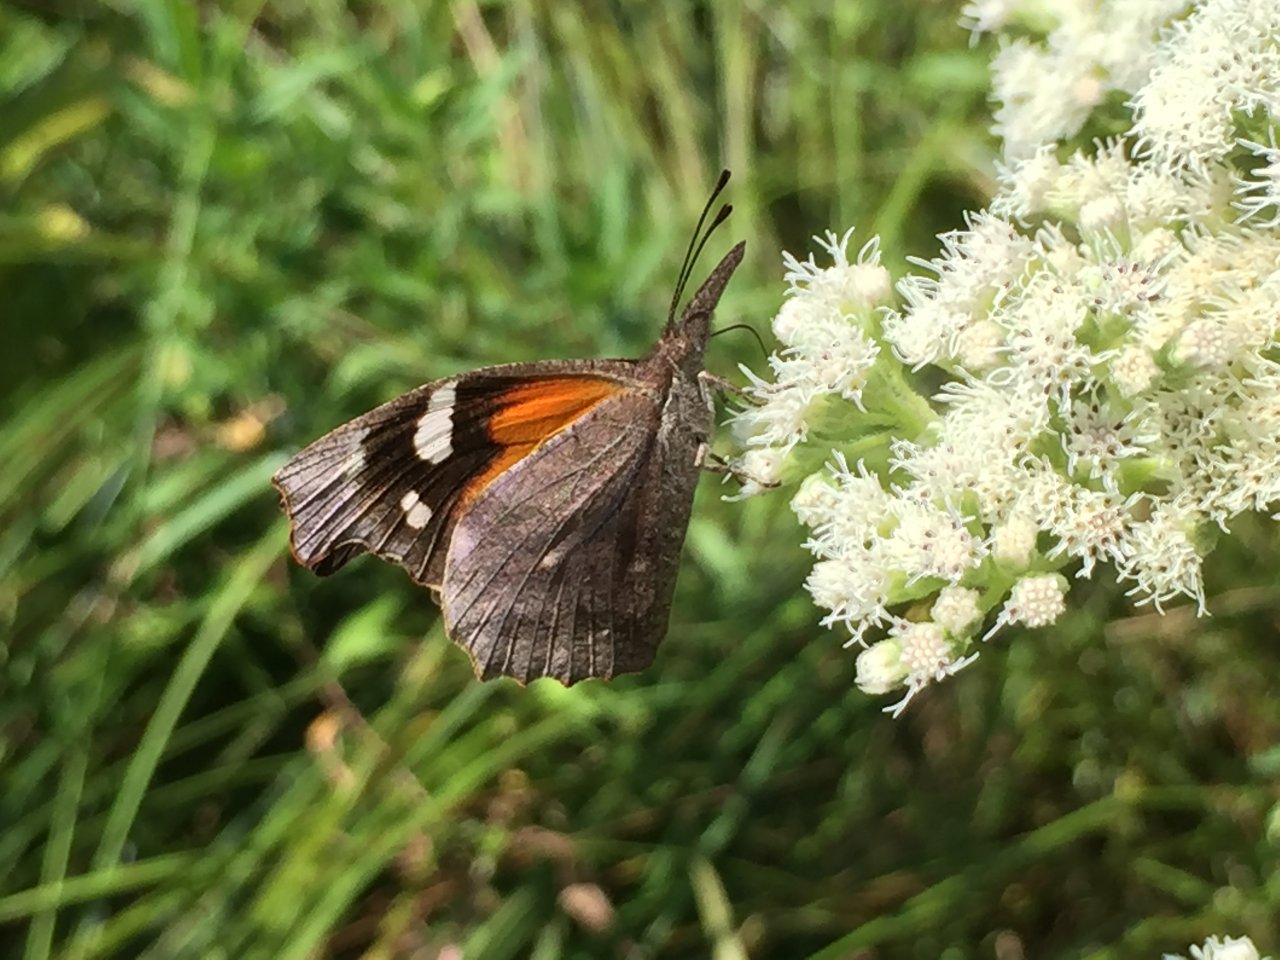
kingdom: Animalia
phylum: Arthropoda
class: Insecta
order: Lepidoptera
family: Nymphalidae
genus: Libytheana
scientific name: Libytheana carinenta
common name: American Snout
